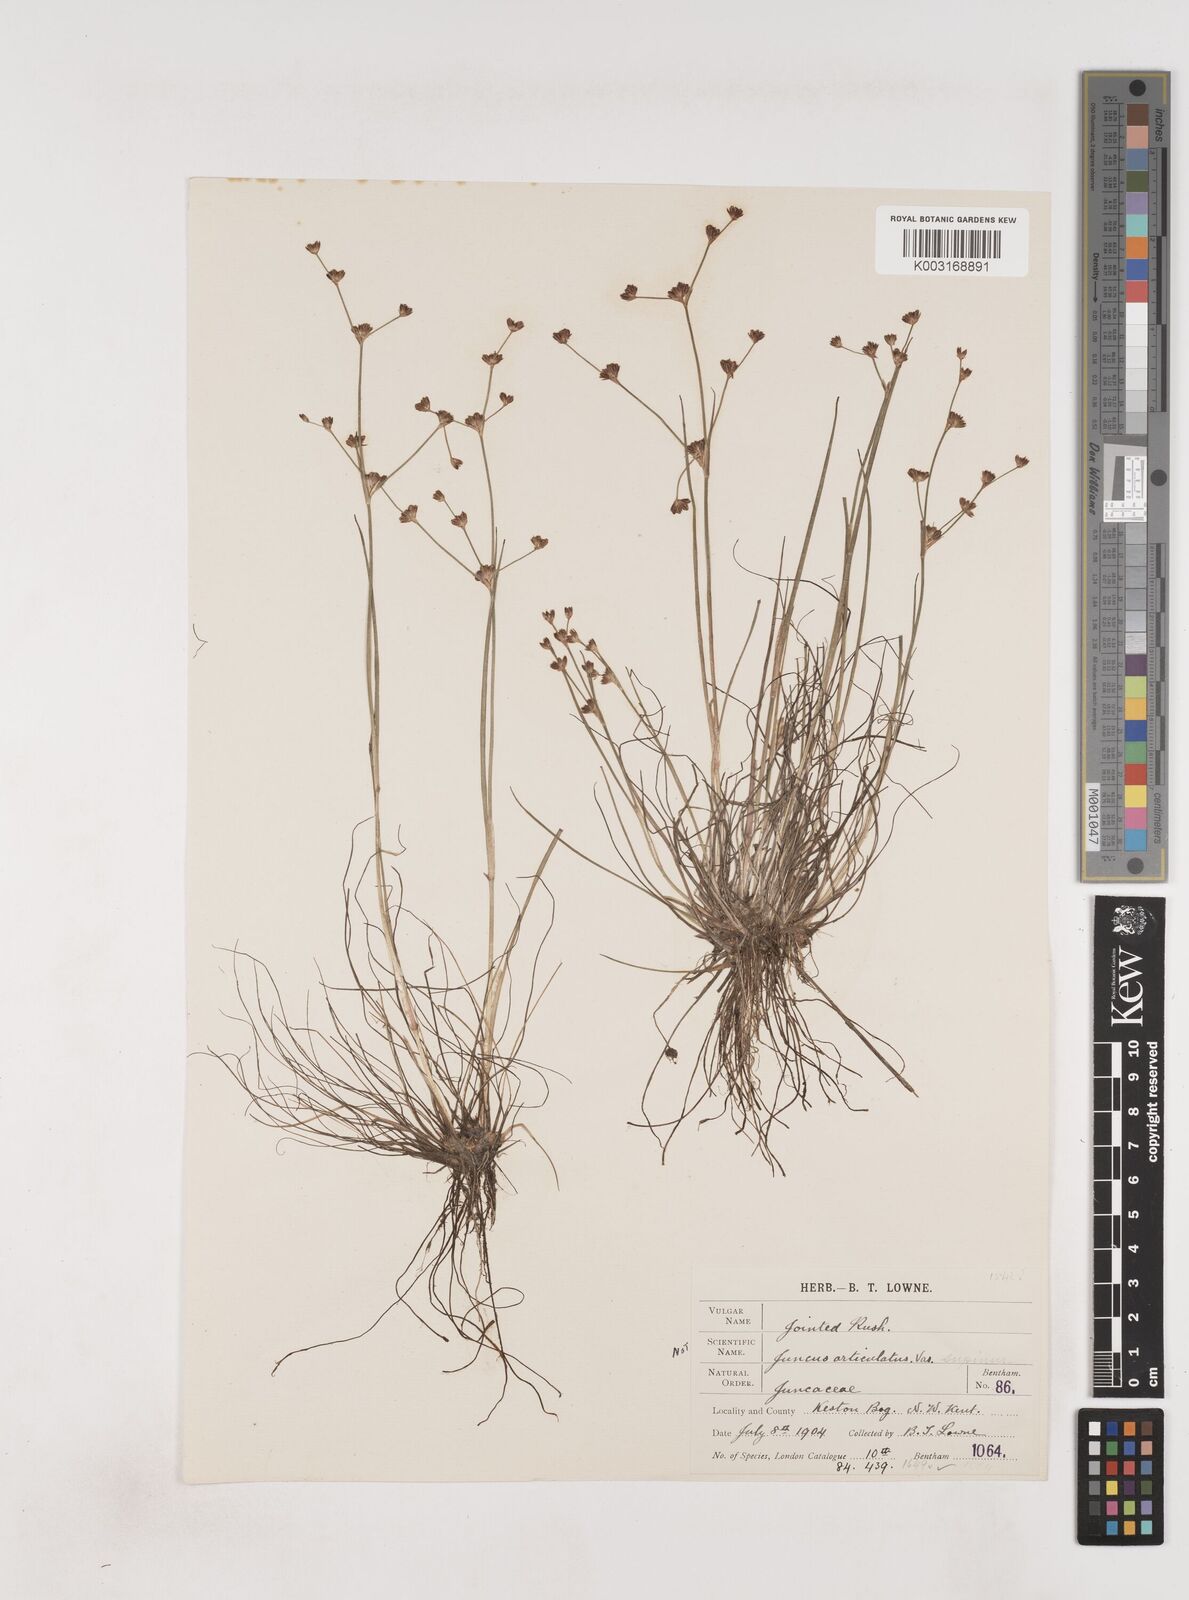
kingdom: Plantae
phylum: Tracheophyta
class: Liliopsida
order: Poales
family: Juncaceae
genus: Juncus
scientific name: Juncus bulbosus
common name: Bulbous rush
